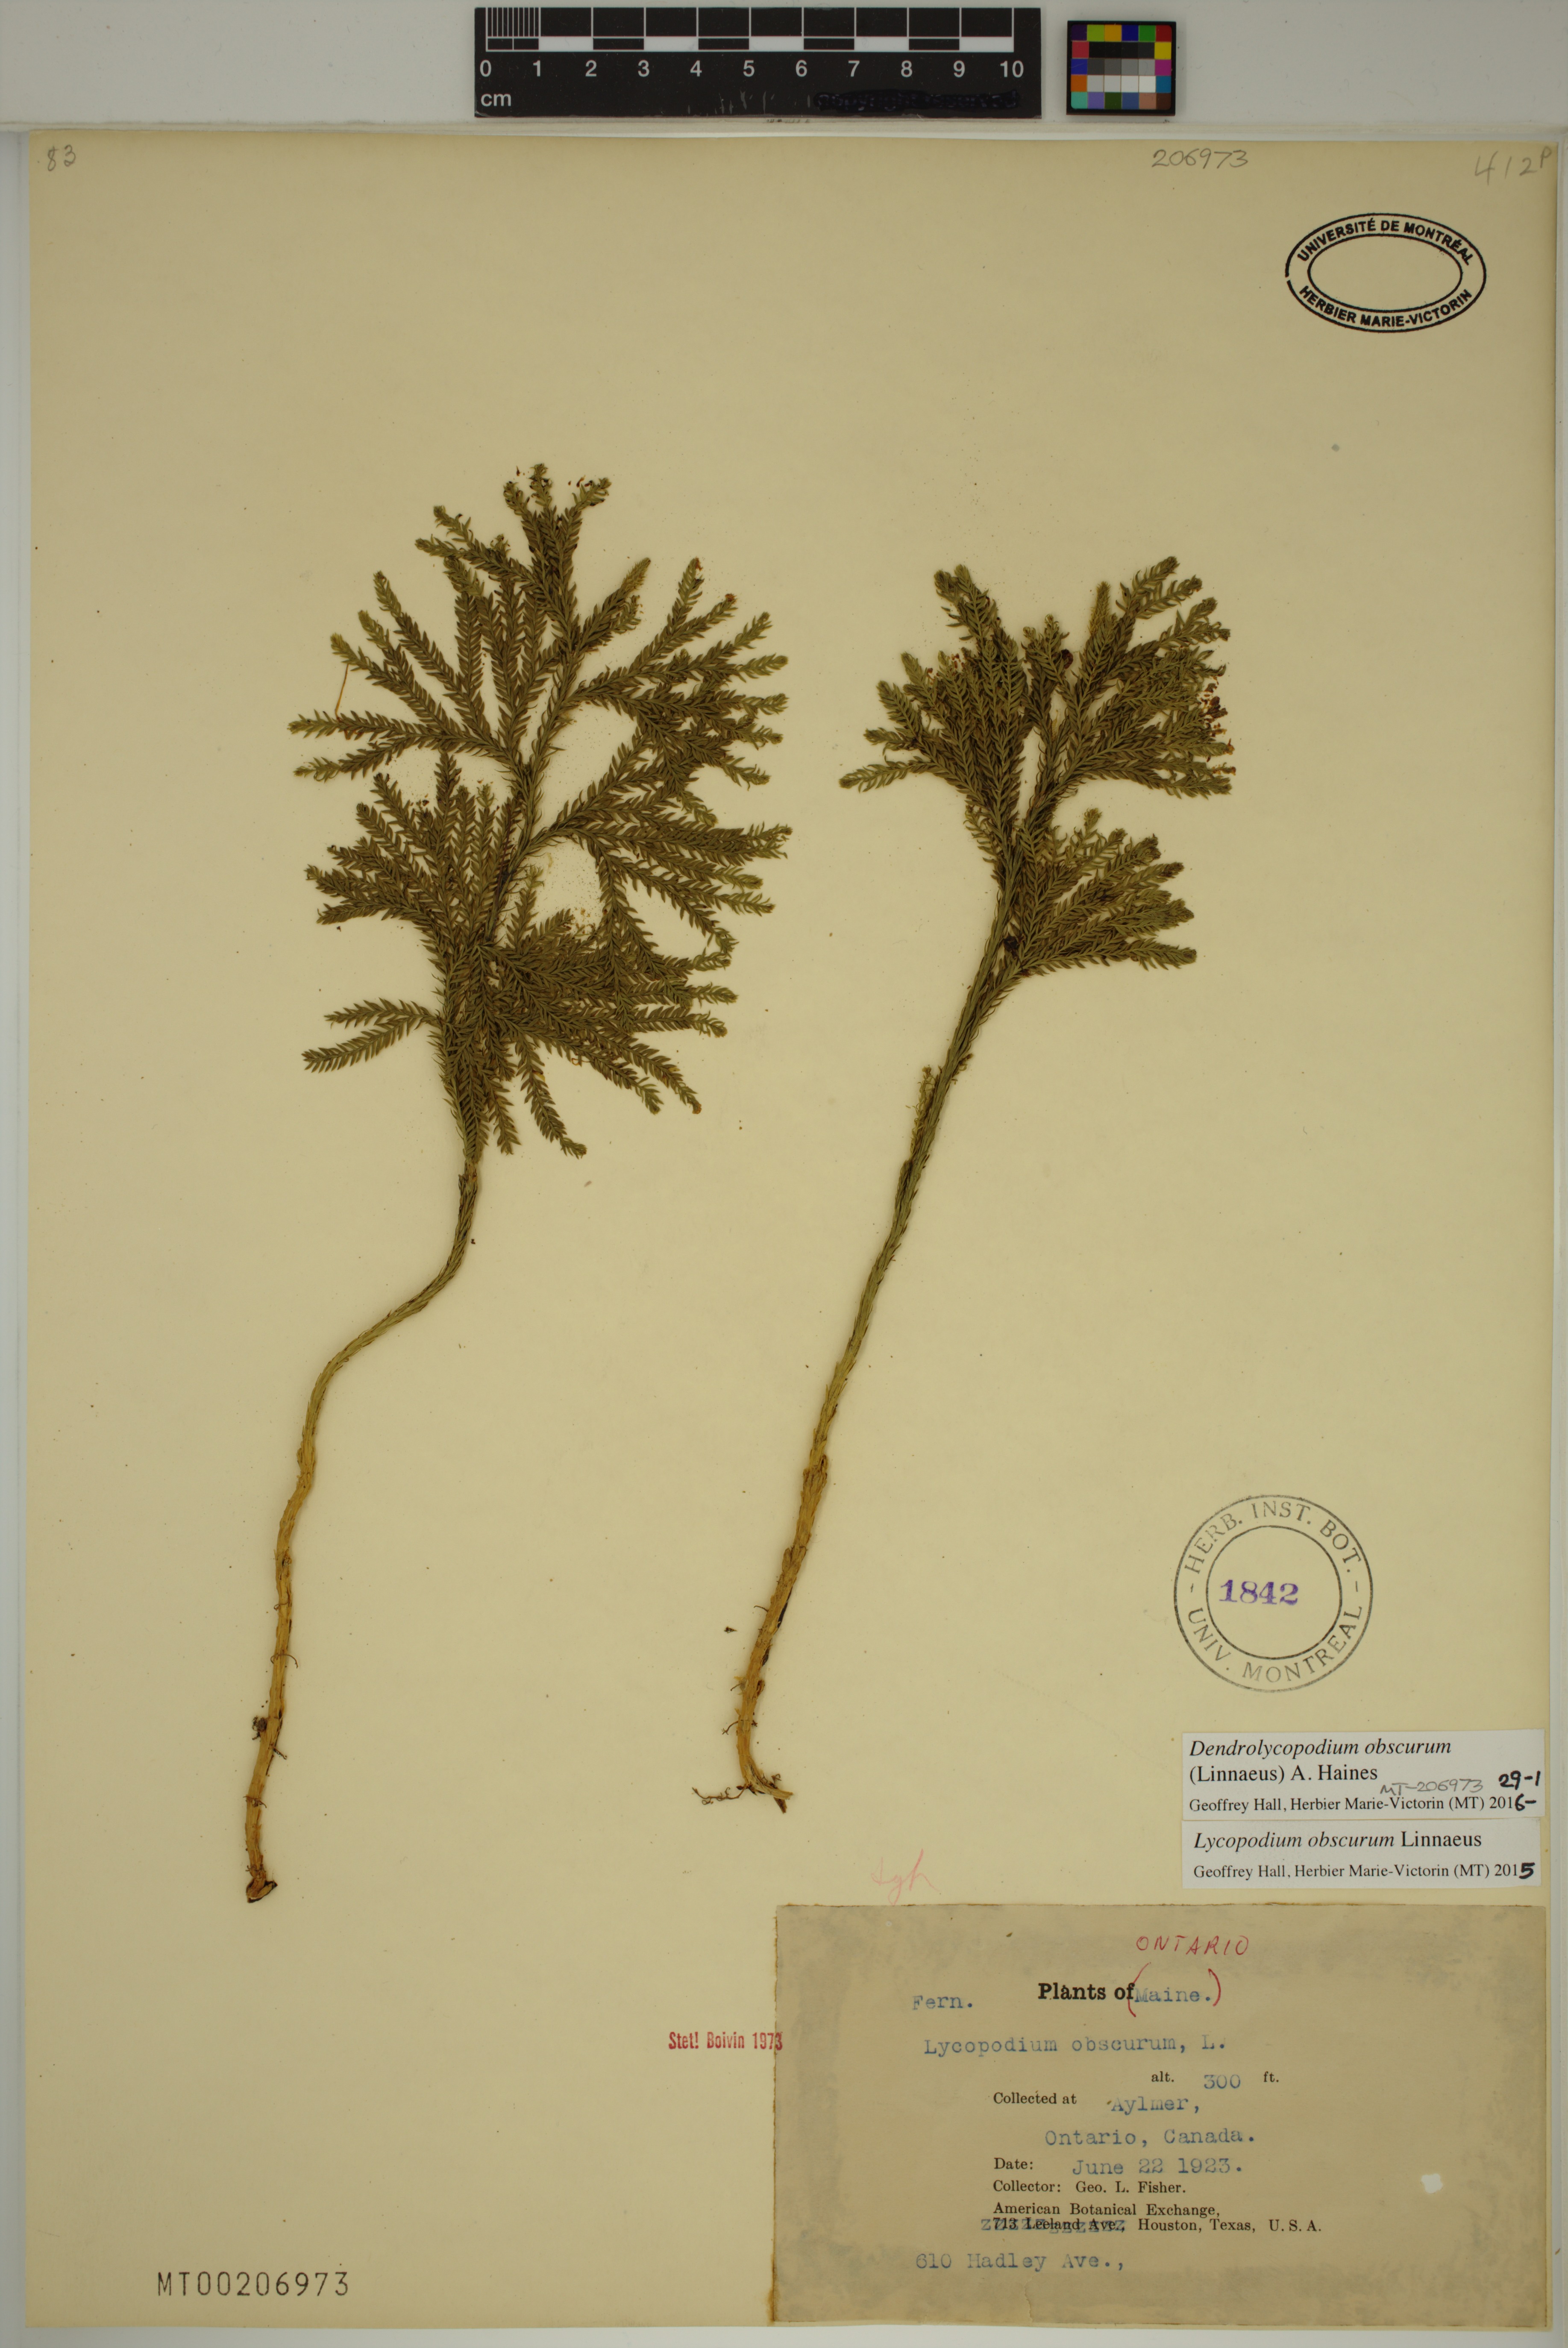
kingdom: Plantae
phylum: Tracheophyta
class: Lycopodiopsida
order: Lycopodiales
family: Lycopodiaceae
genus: Dendrolycopodium
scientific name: Dendrolycopodium obscurum
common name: Common ground-pine
